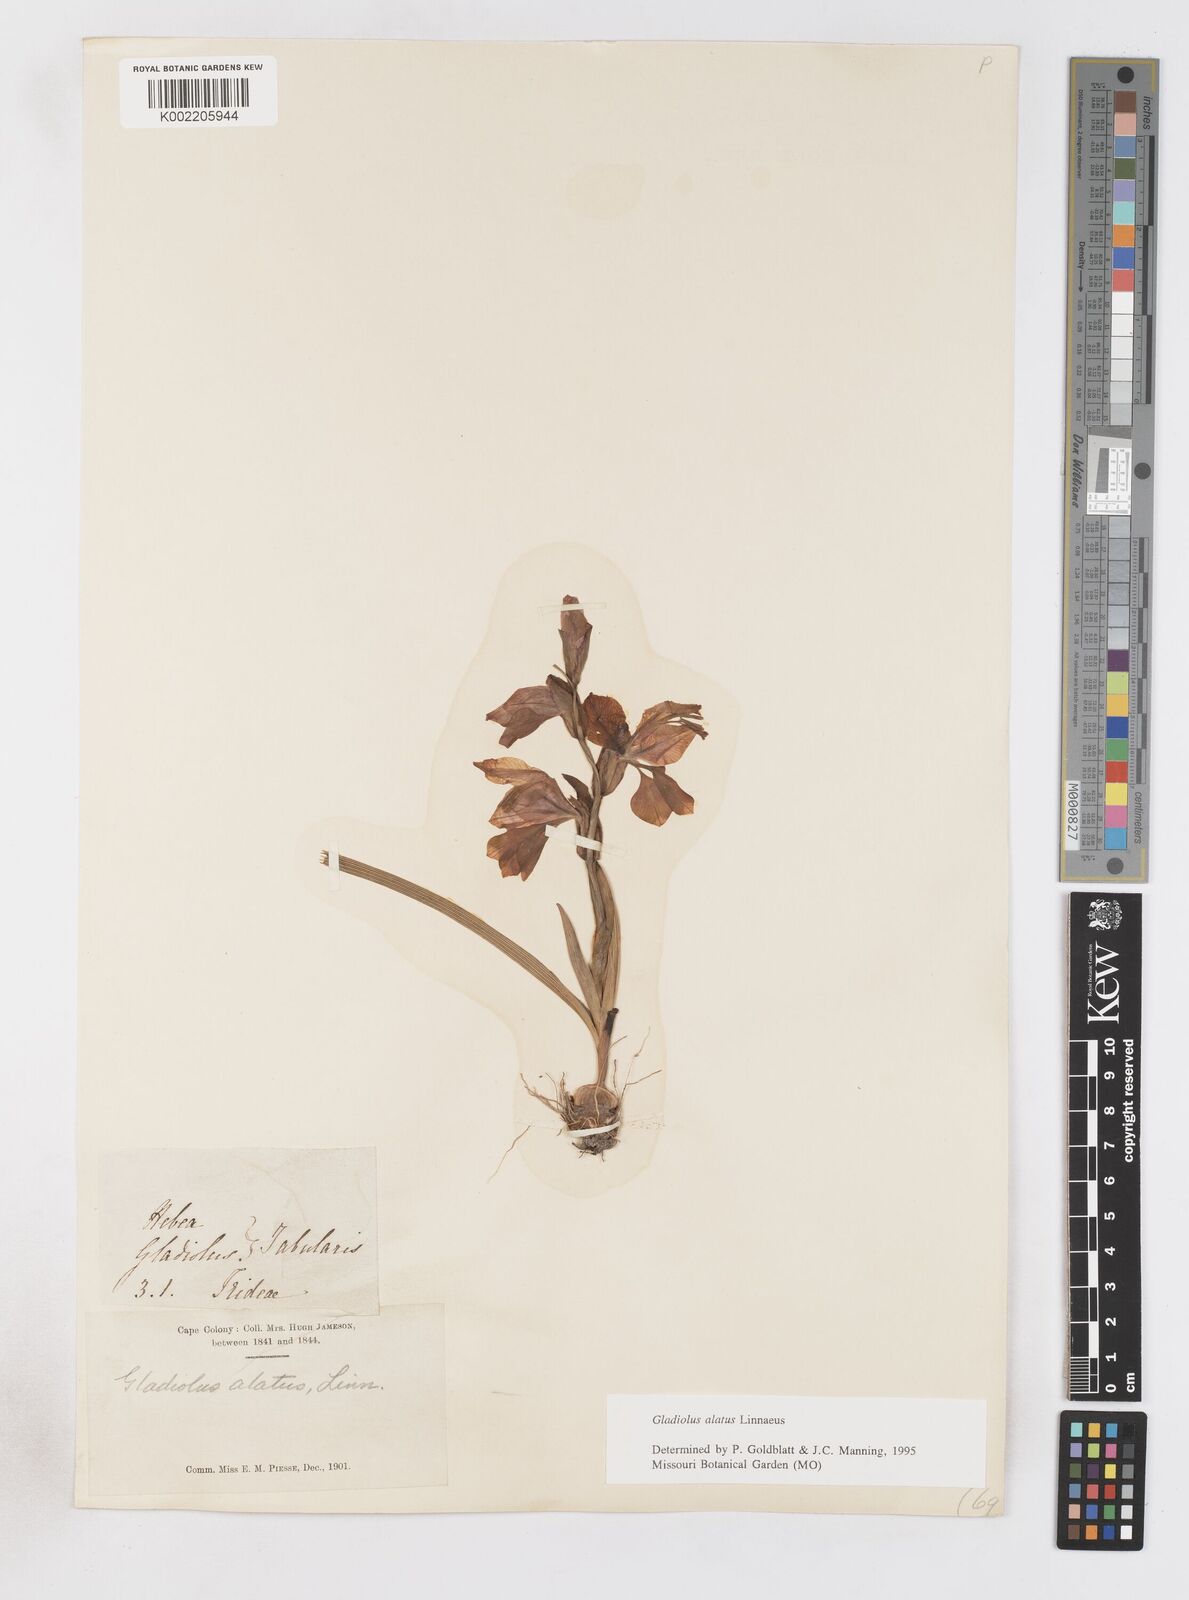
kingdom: Plantae
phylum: Tracheophyta
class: Liliopsida
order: Asparagales
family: Iridaceae
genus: Gladiolus
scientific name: Gladiolus alatus
